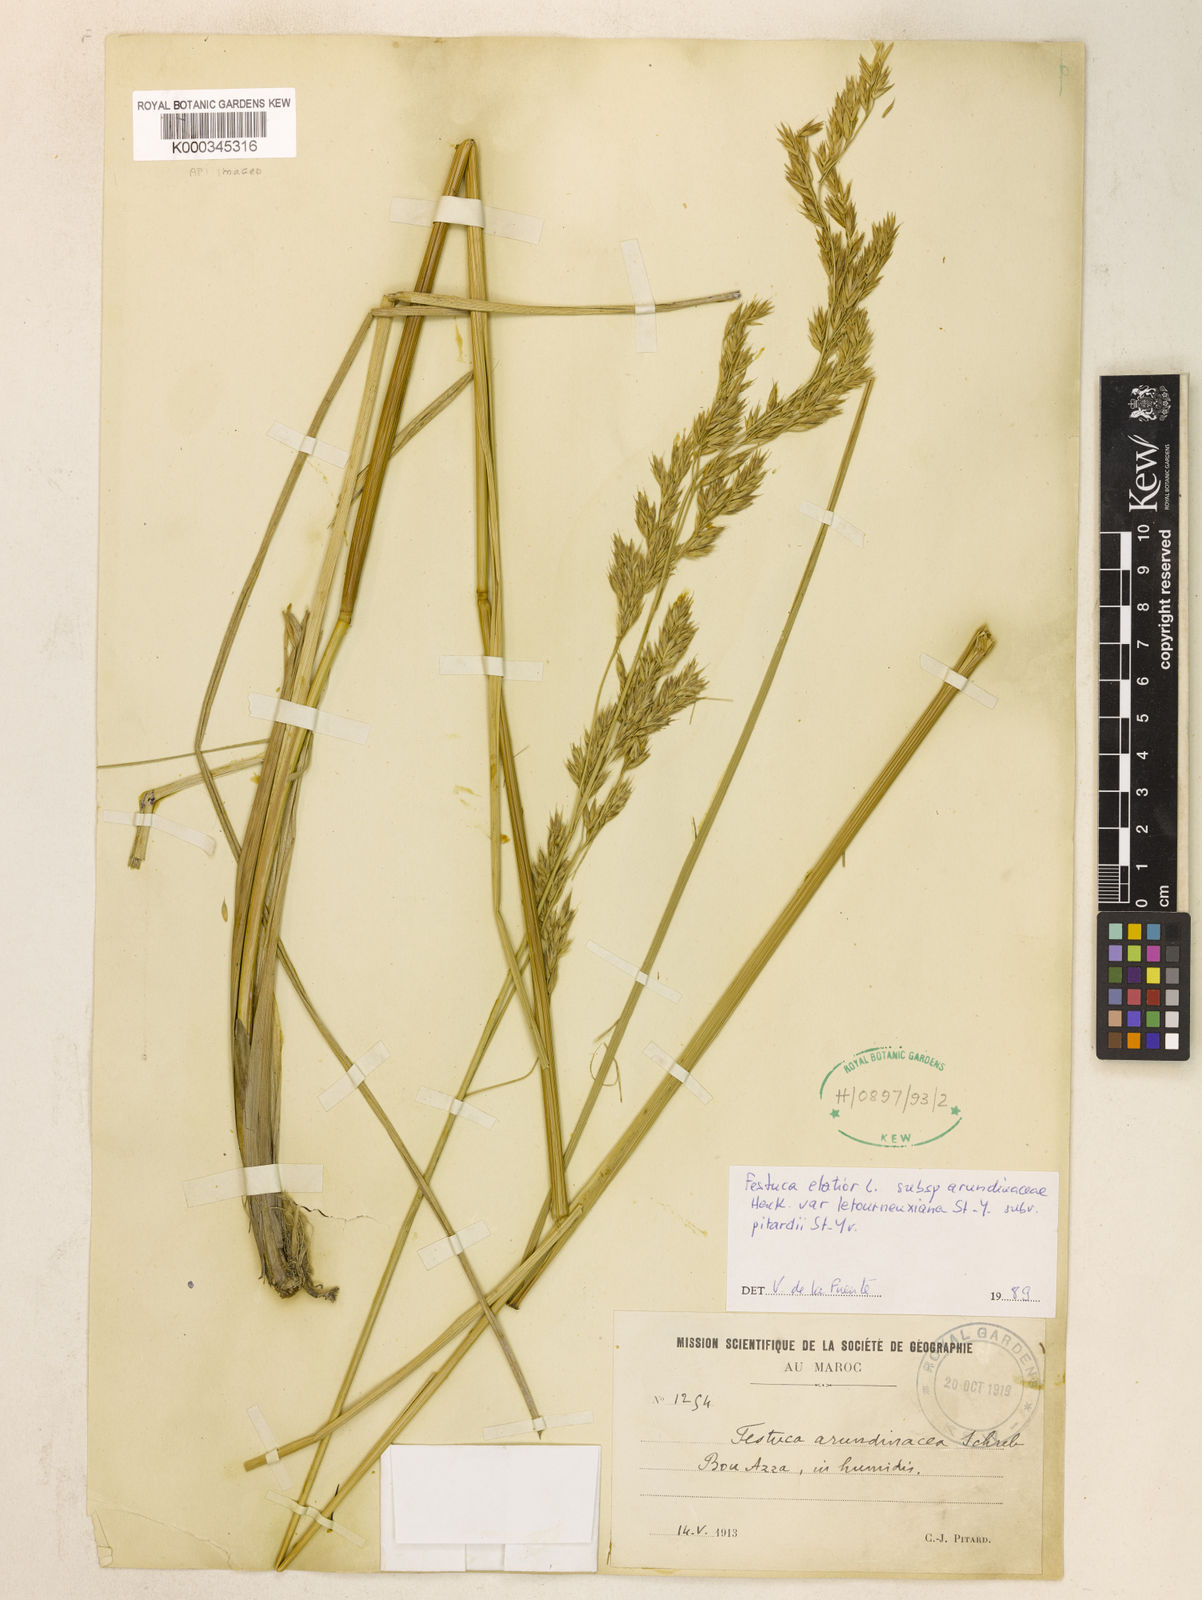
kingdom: Plantae
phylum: Tracheophyta
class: Liliopsida
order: Poales
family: Poaceae
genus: Lolium
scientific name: Lolium arundinaceum
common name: Reed fescue
